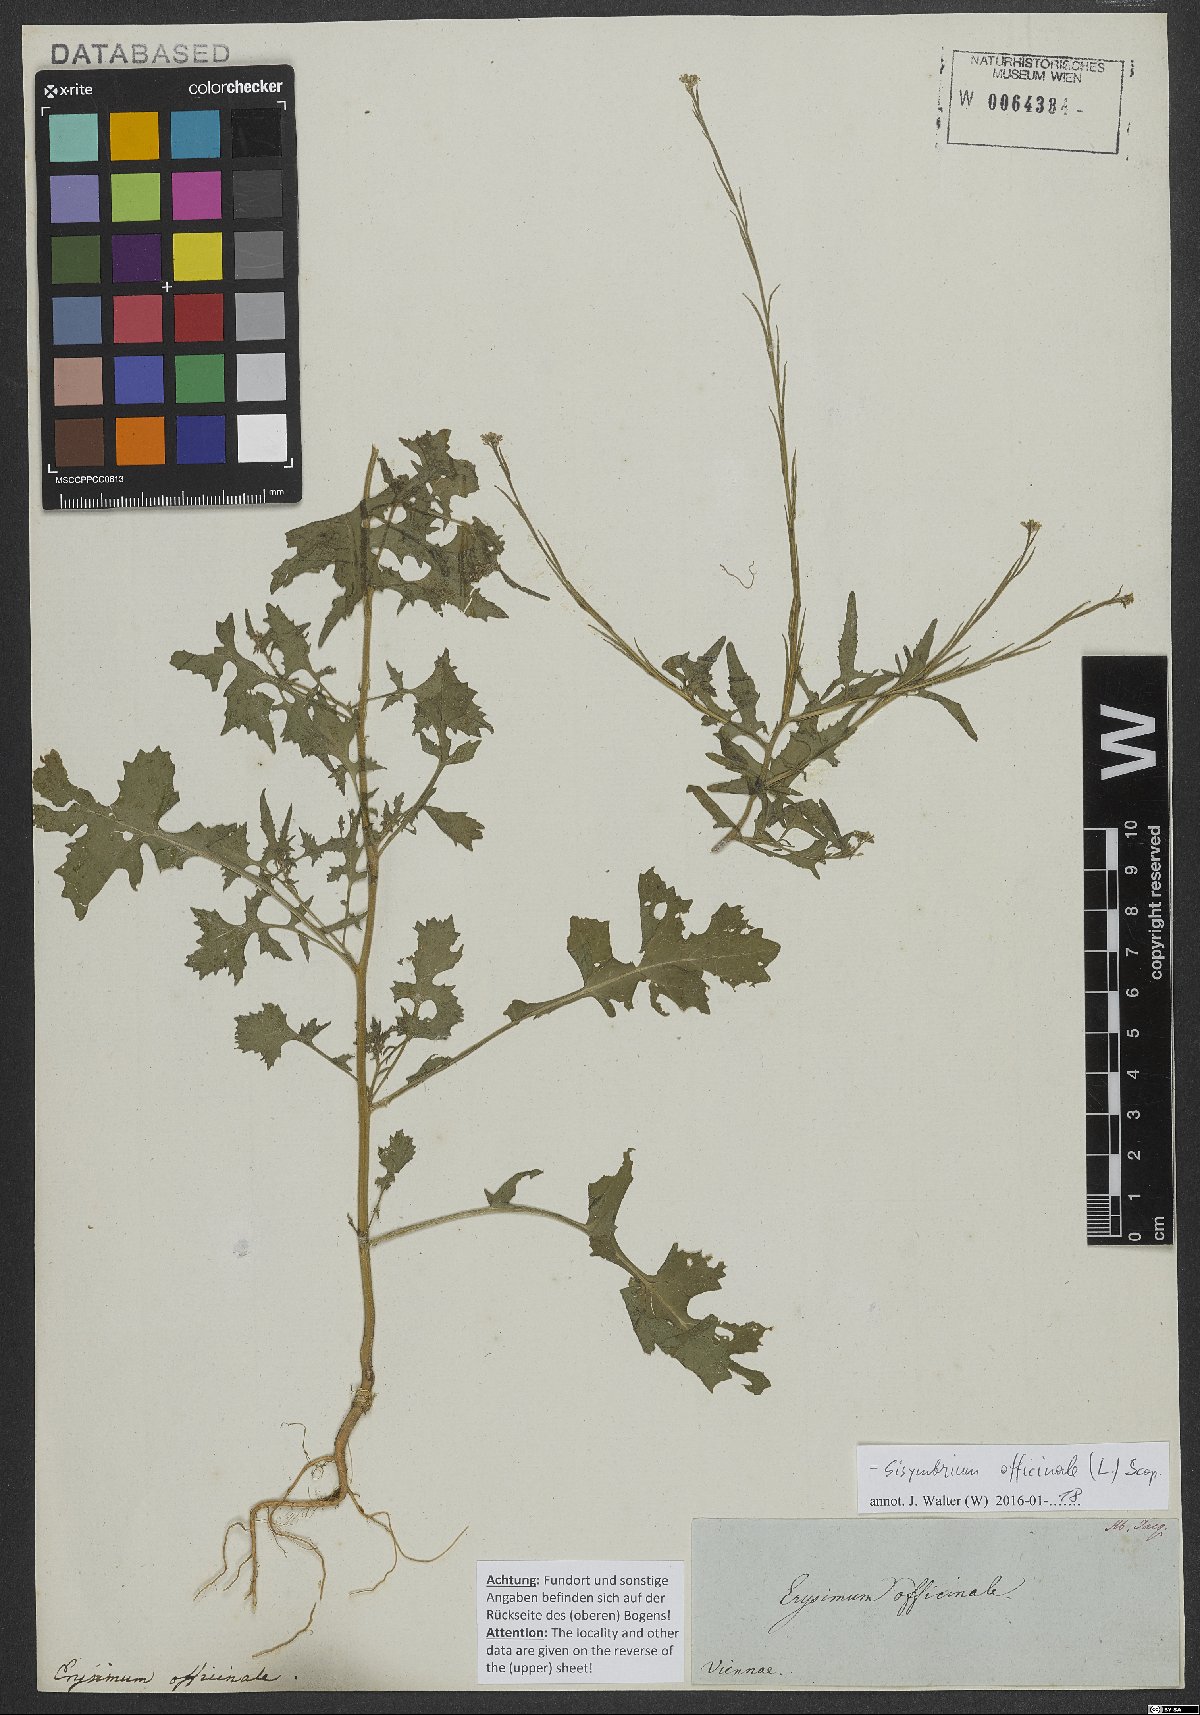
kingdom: Plantae
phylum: Tracheophyta
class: Magnoliopsida
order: Brassicales
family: Brassicaceae
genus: Sisymbrium
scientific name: Sisymbrium officinale
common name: Hedge mustard
